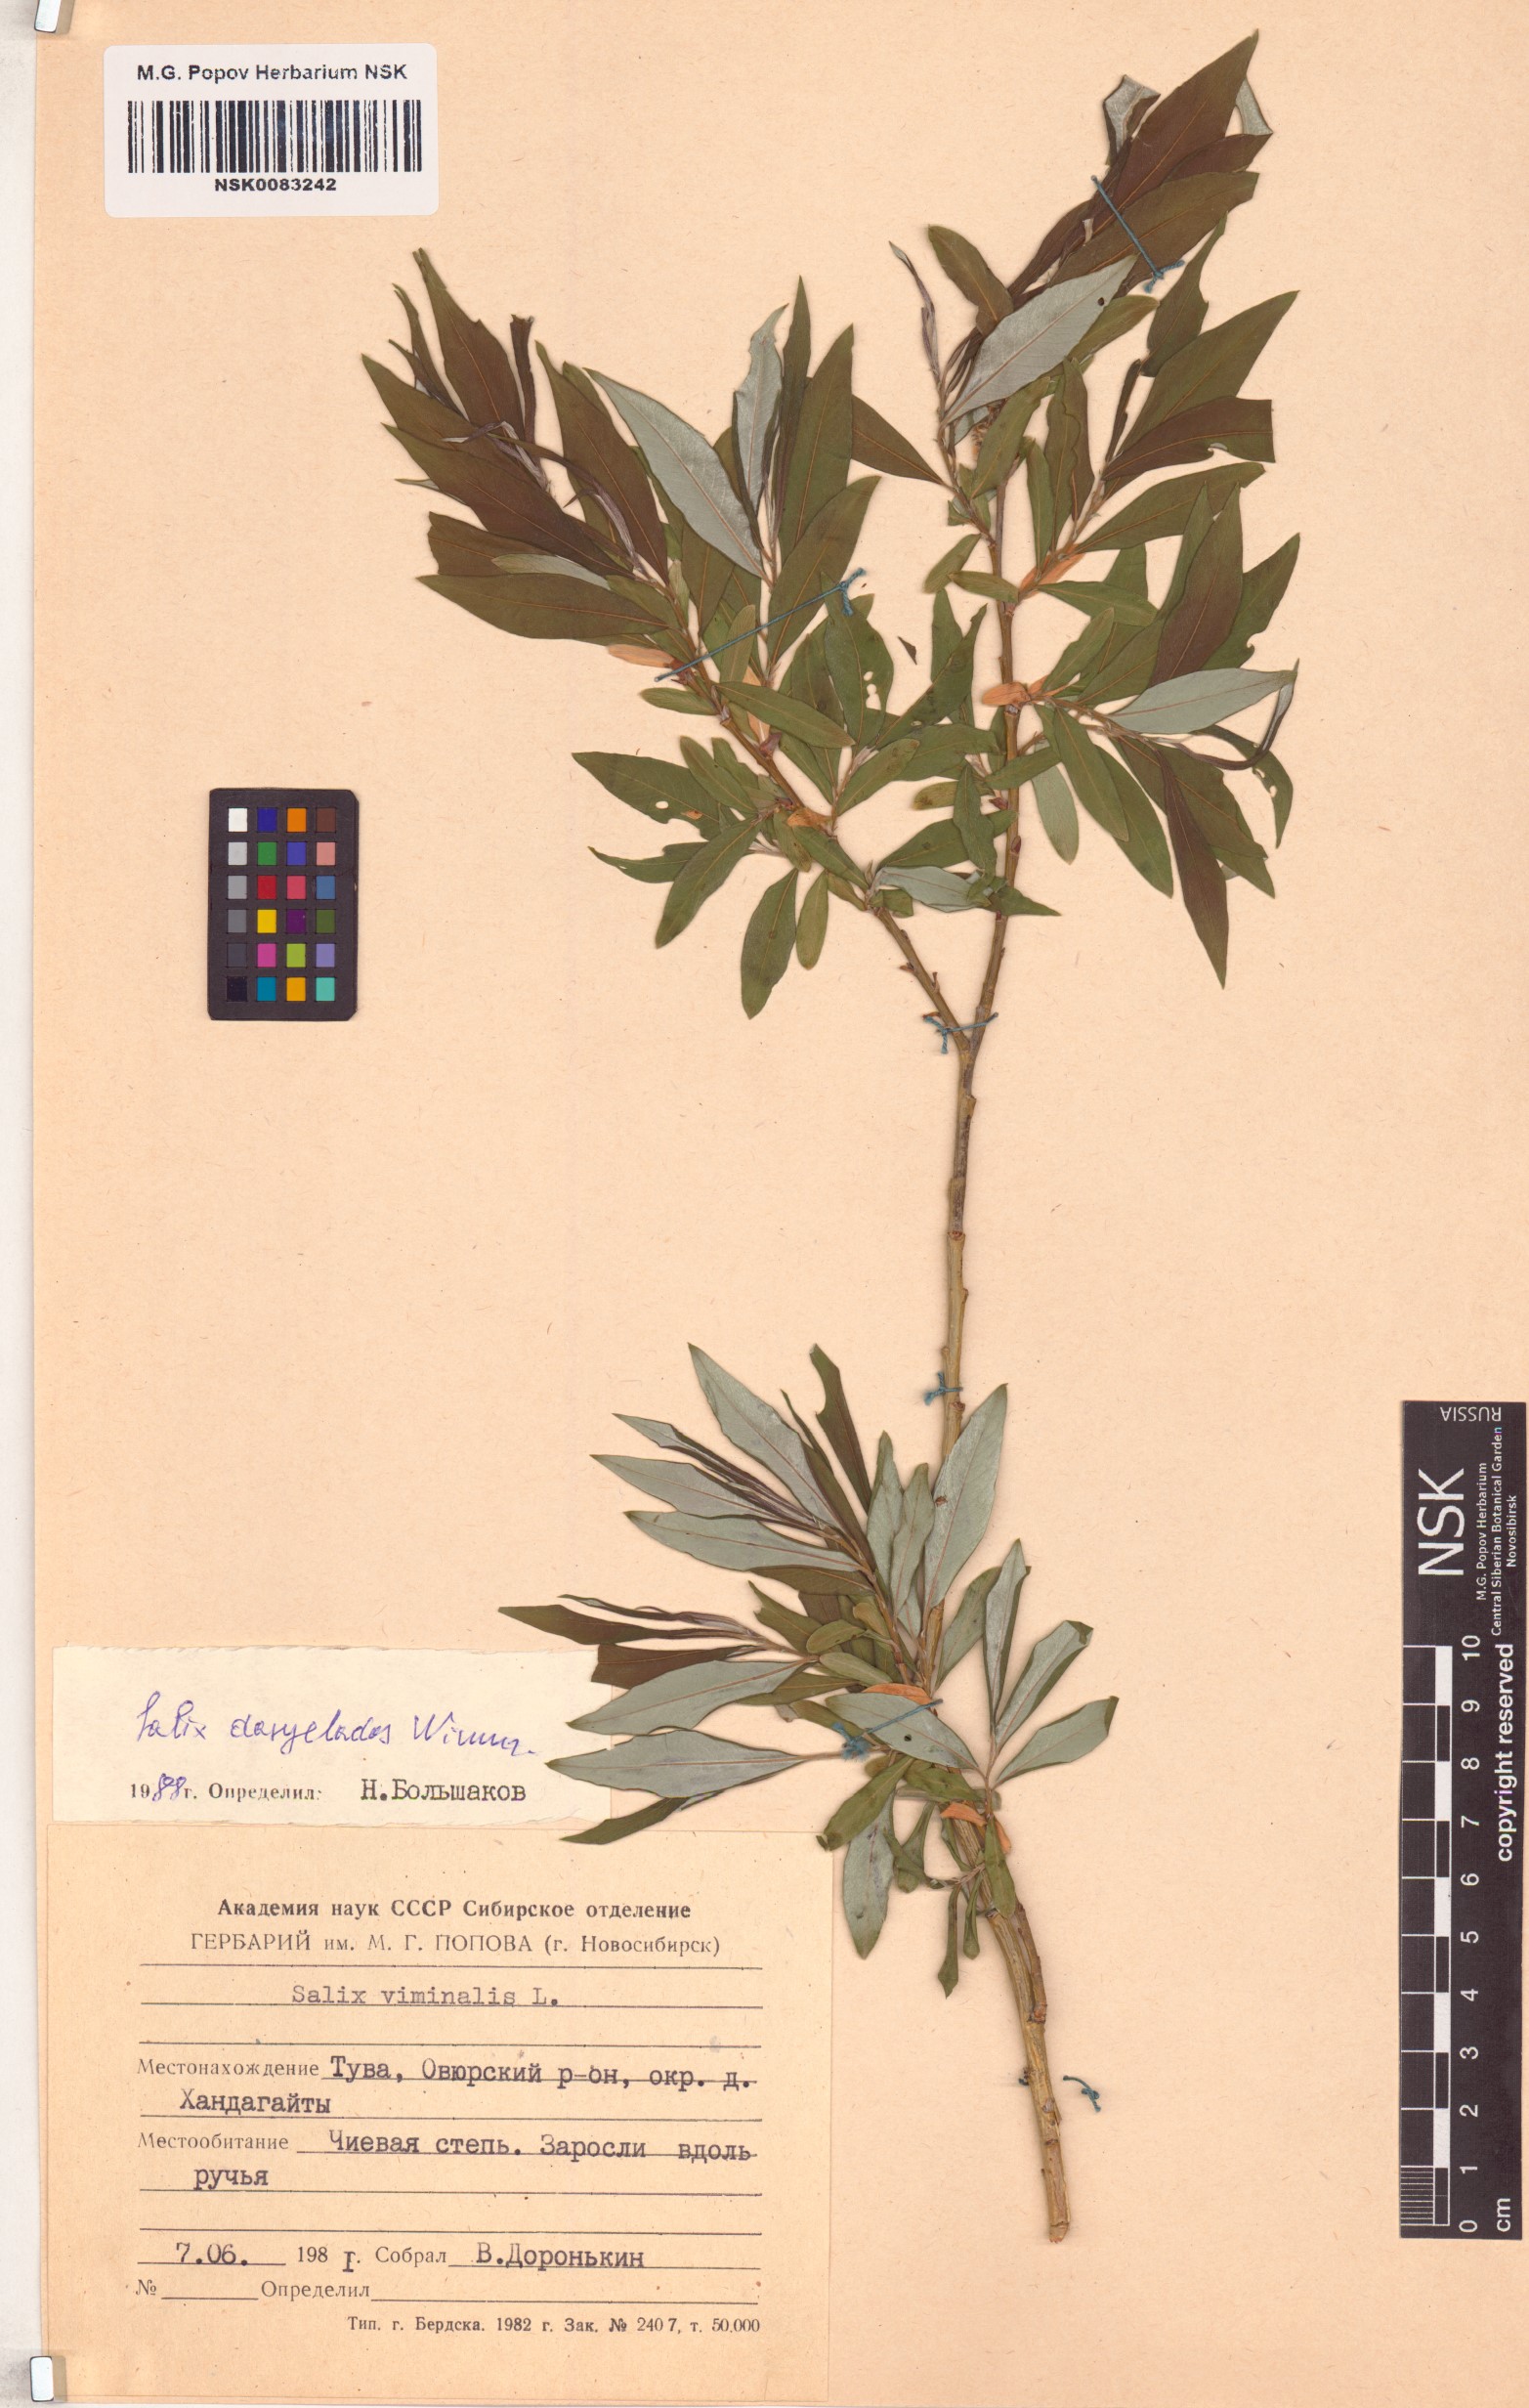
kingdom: Plantae
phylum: Tracheophyta
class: Magnoliopsida
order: Malpighiales
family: Salicaceae
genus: Salix
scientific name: Salix gmelinii
